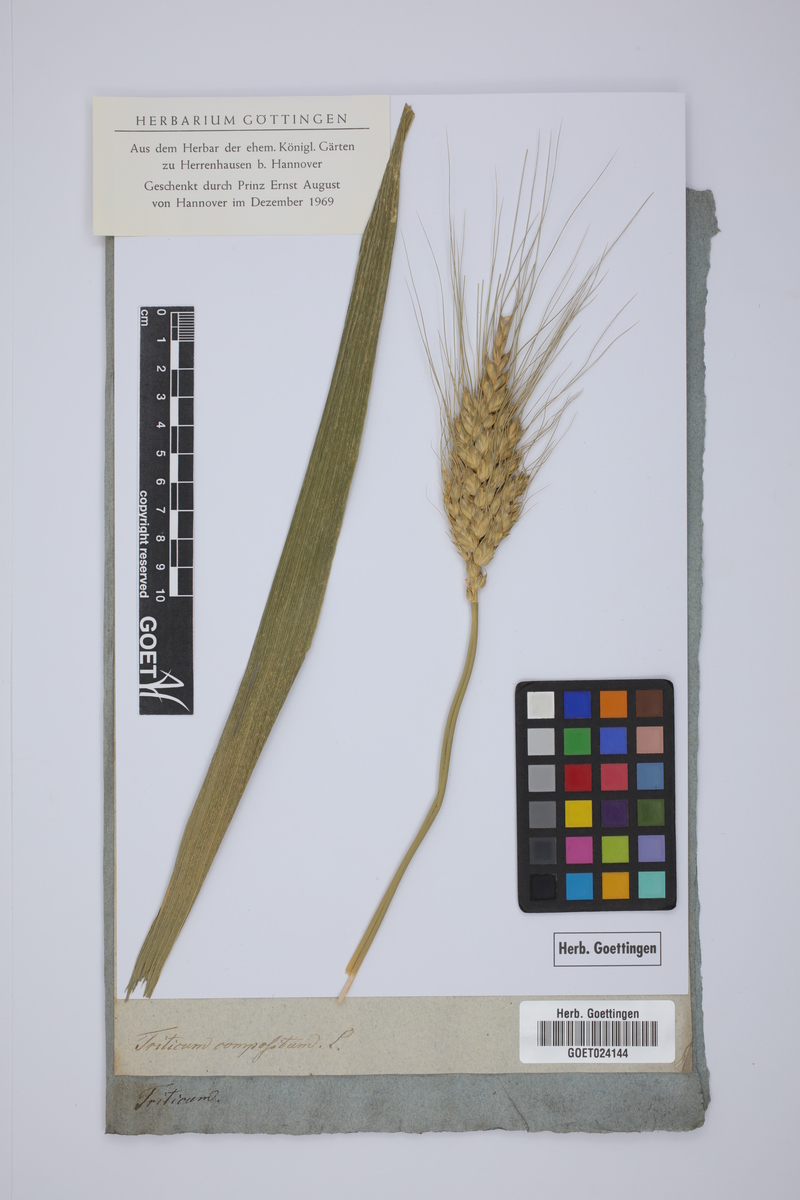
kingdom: Plantae
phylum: Tracheophyta
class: Liliopsida
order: Poales
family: Poaceae
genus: Triticum
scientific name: Triticum turgidum
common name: Rivet wheat
